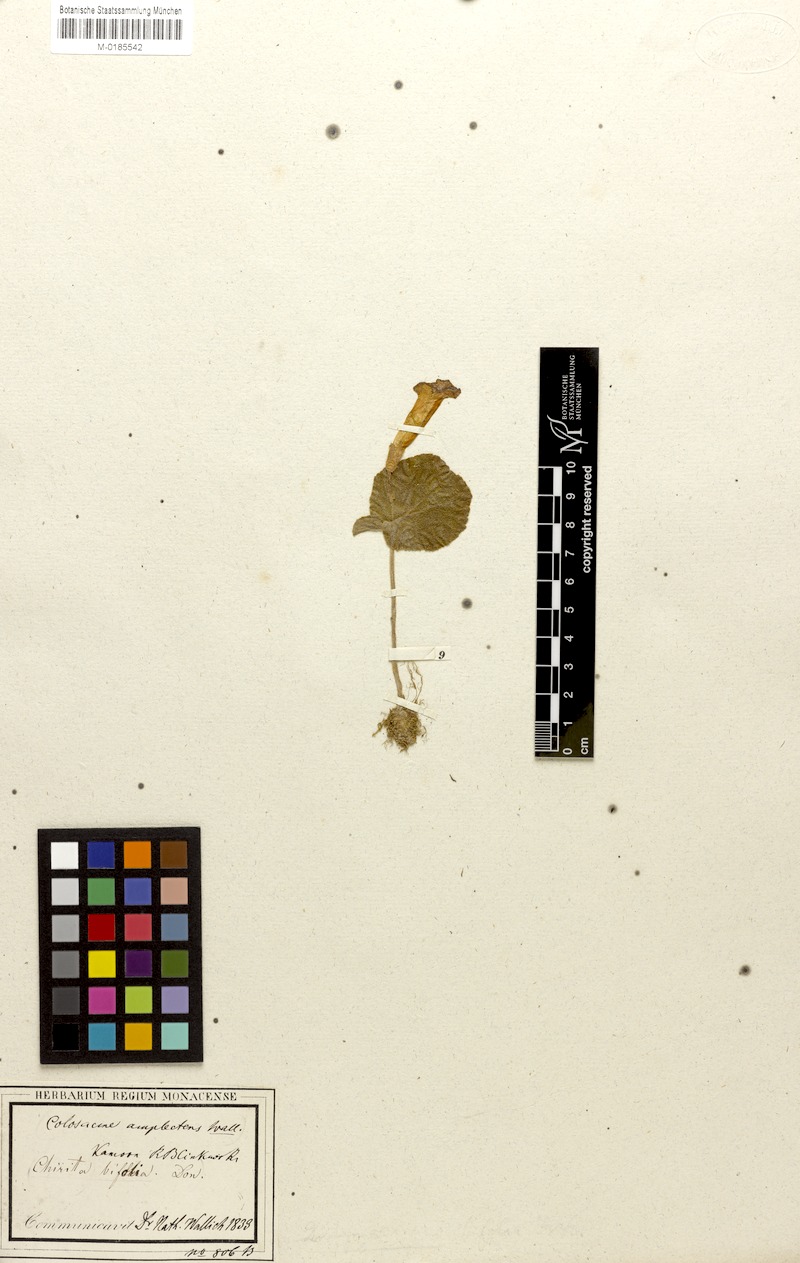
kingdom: Plantae
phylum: Tracheophyta
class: Magnoliopsida
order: Lamiales
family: Gesneriaceae
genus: Henckelia
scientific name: Henckelia bifolia
